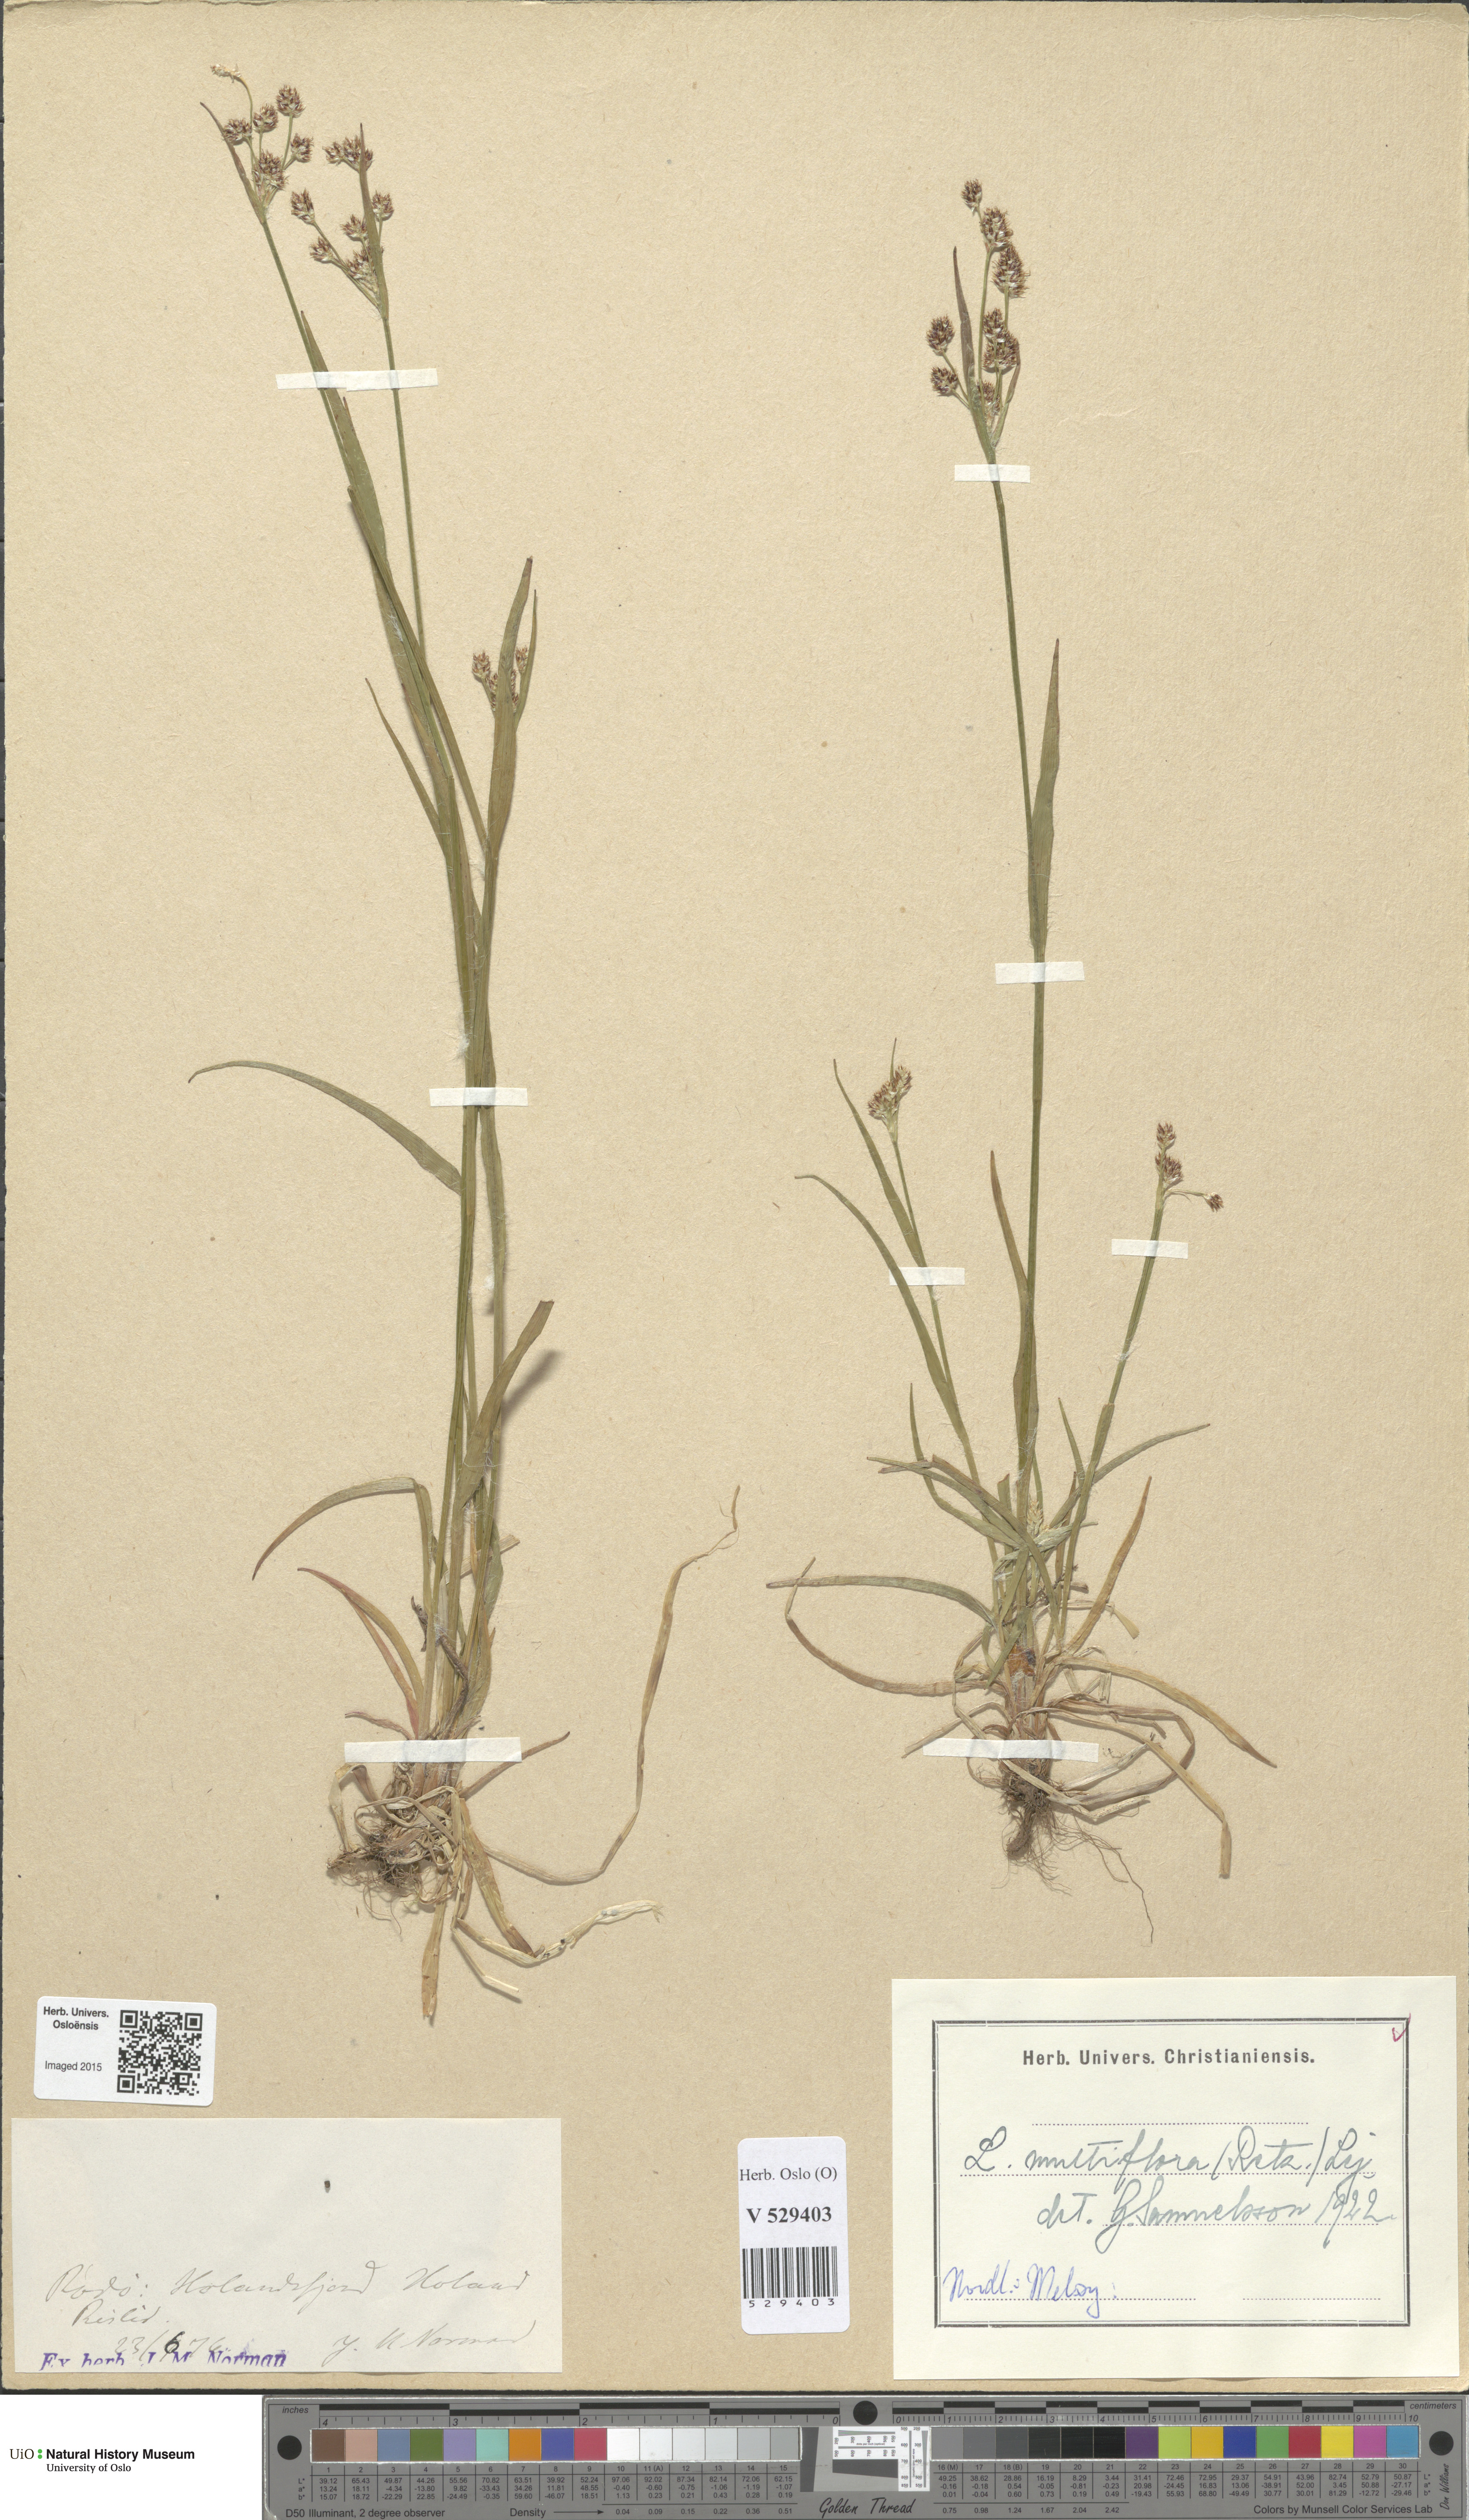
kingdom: Plantae
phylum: Tracheophyta
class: Liliopsida
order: Poales
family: Juncaceae
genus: Luzula
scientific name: Luzula multiflora
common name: Heath wood-rush
